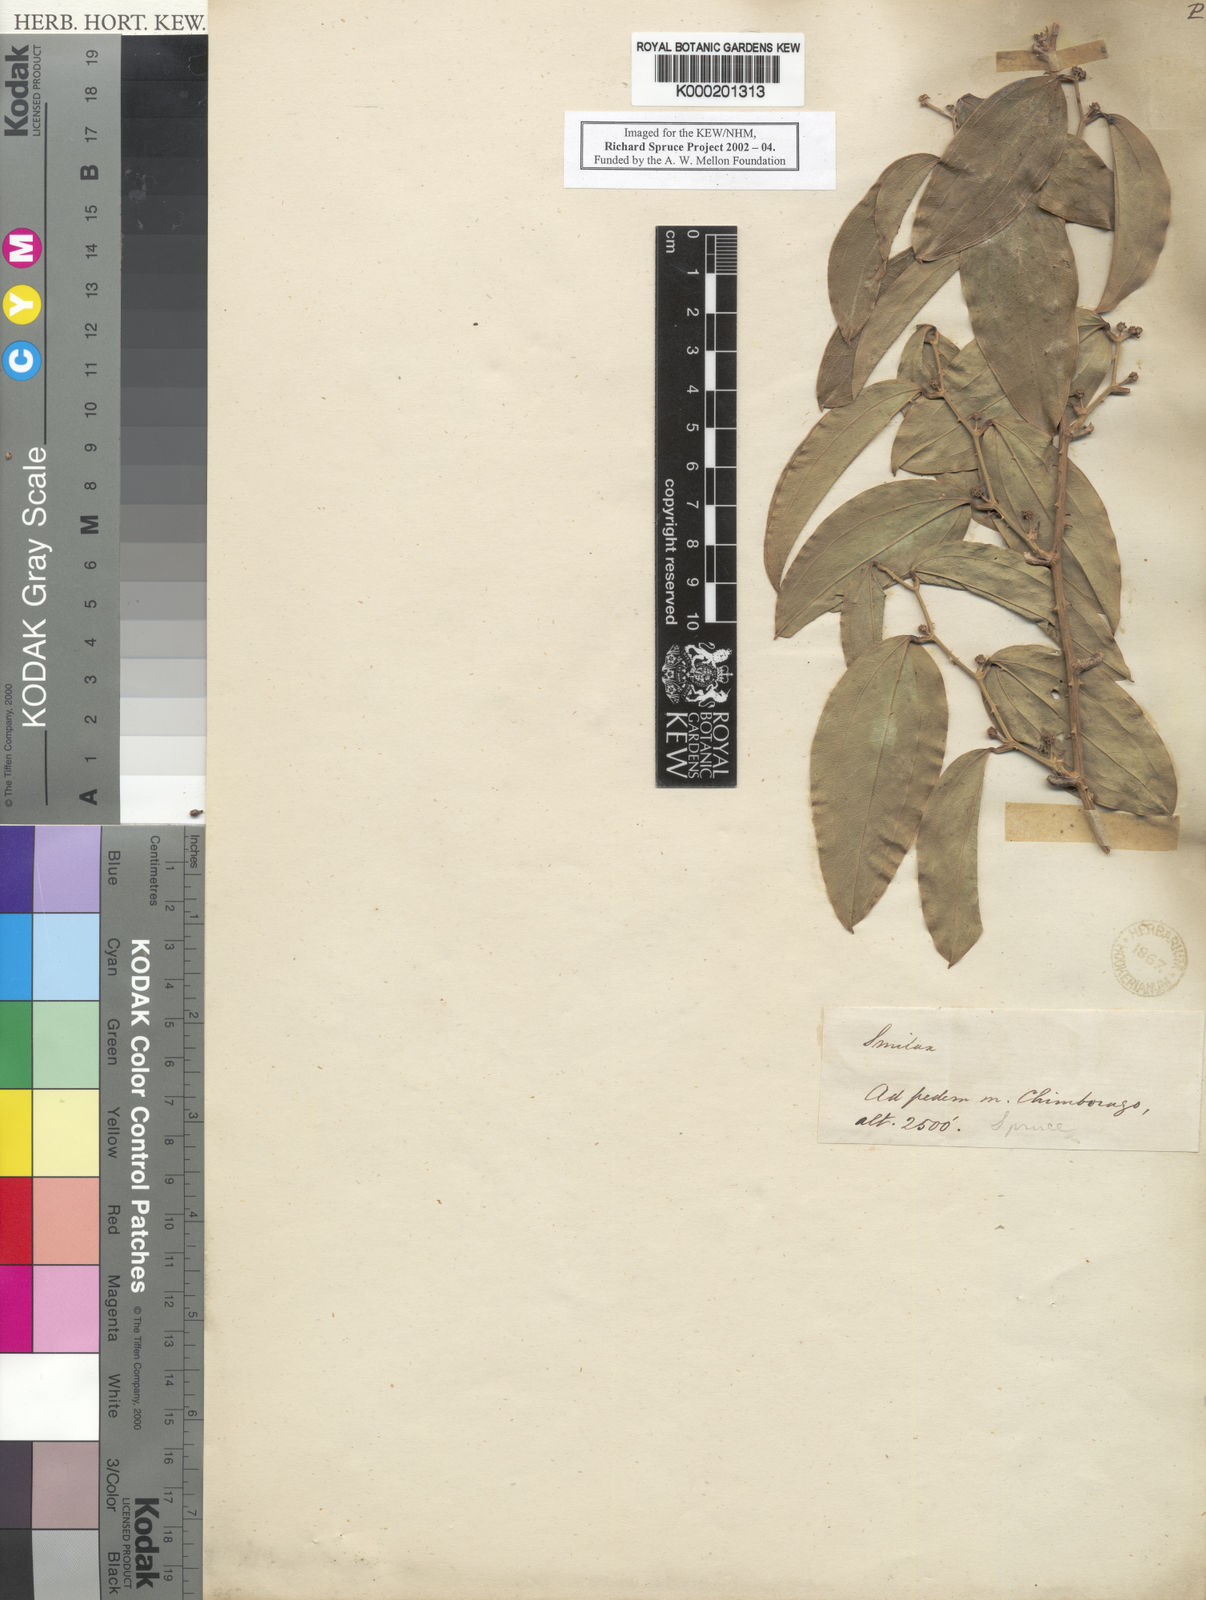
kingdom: Plantae
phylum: Tracheophyta
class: Liliopsida
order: Liliales
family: Smilacaceae
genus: Smilax
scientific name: Smilax
